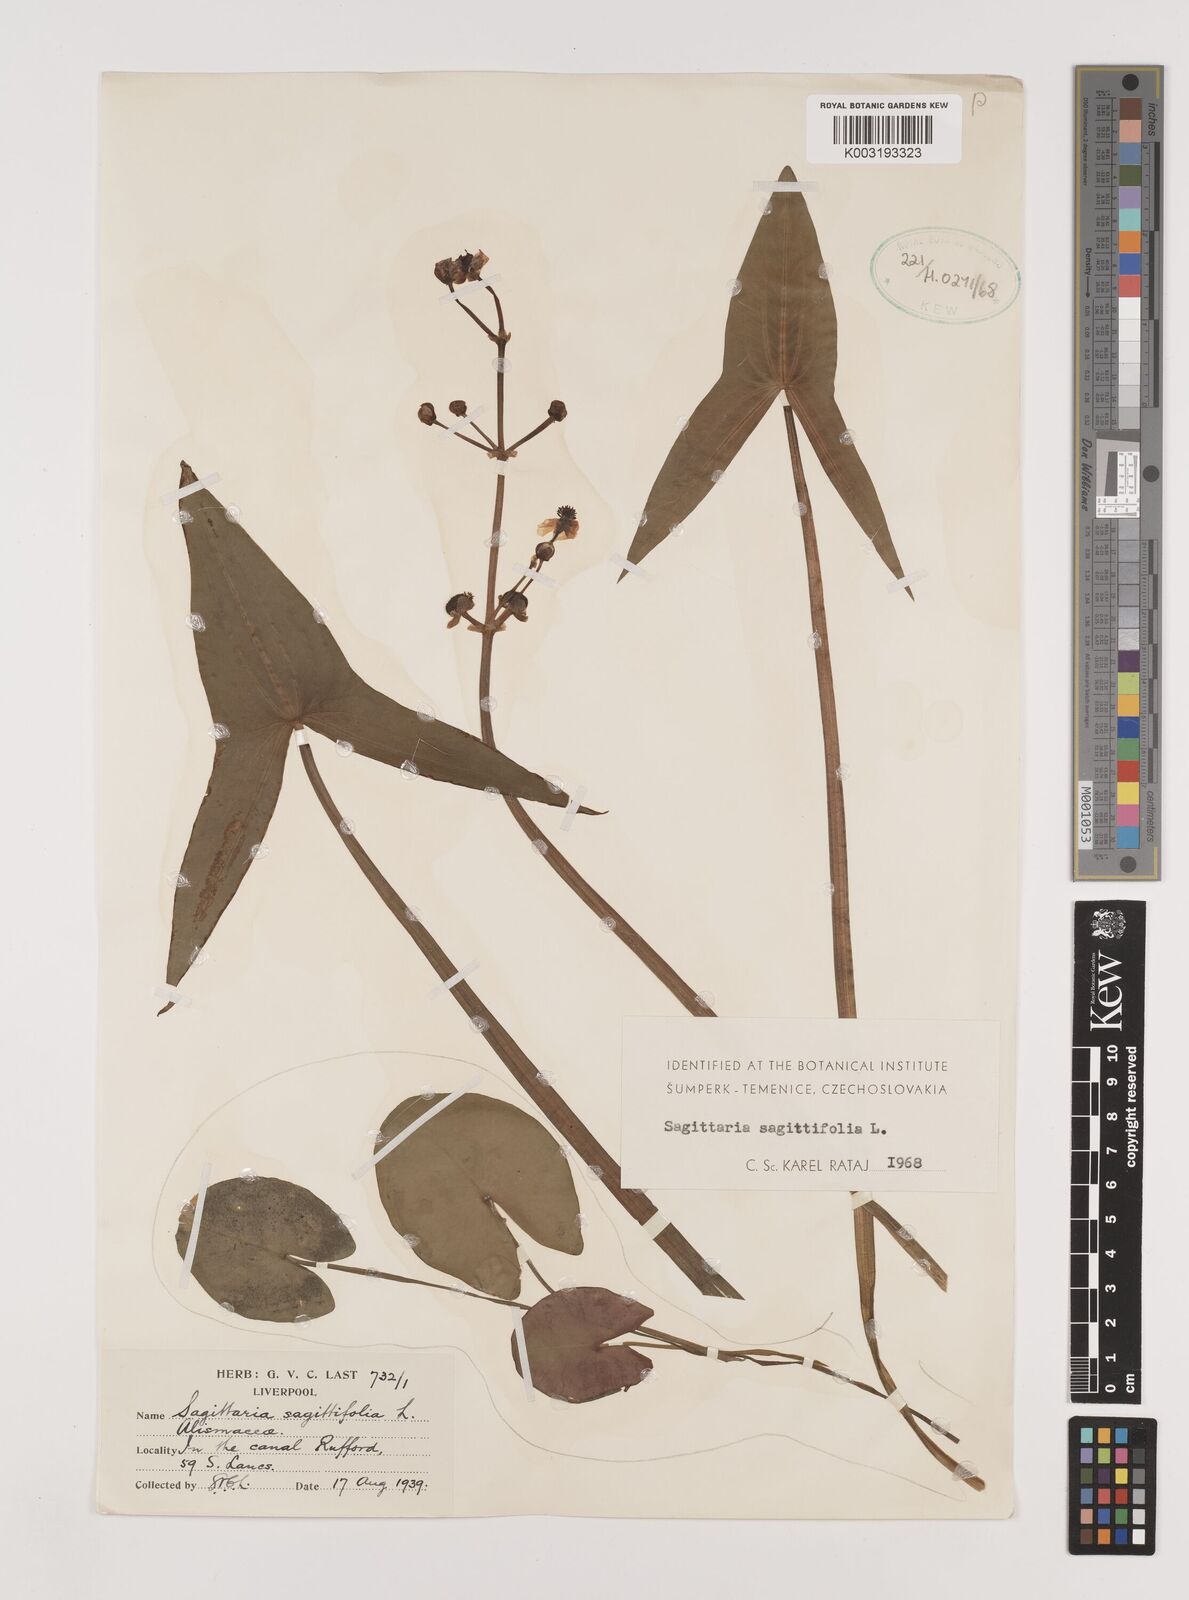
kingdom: Plantae
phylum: Tracheophyta
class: Liliopsida
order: Alismatales
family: Alismataceae
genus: Sagittaria
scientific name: Sagittaria sagittifolia
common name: Arrowhead
